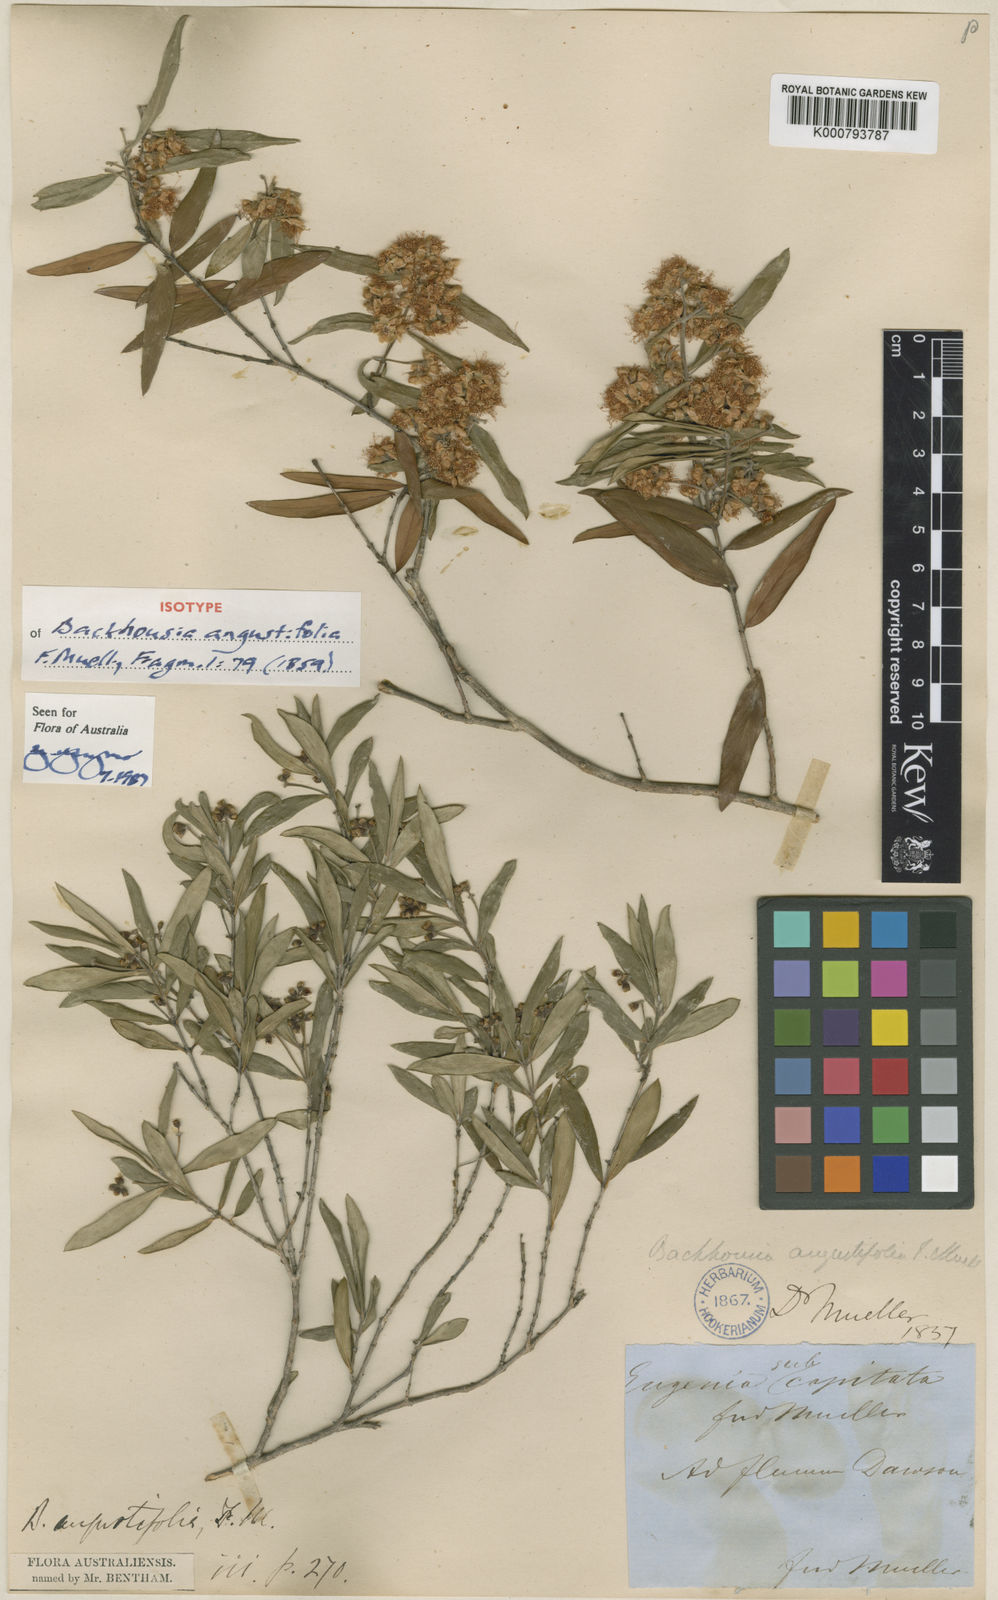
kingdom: Plantae
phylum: Tracheophyta
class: Magnoliopsida
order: Myrtales
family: Myrtaceae
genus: Backhousia
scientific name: Backhousia angustifolia
